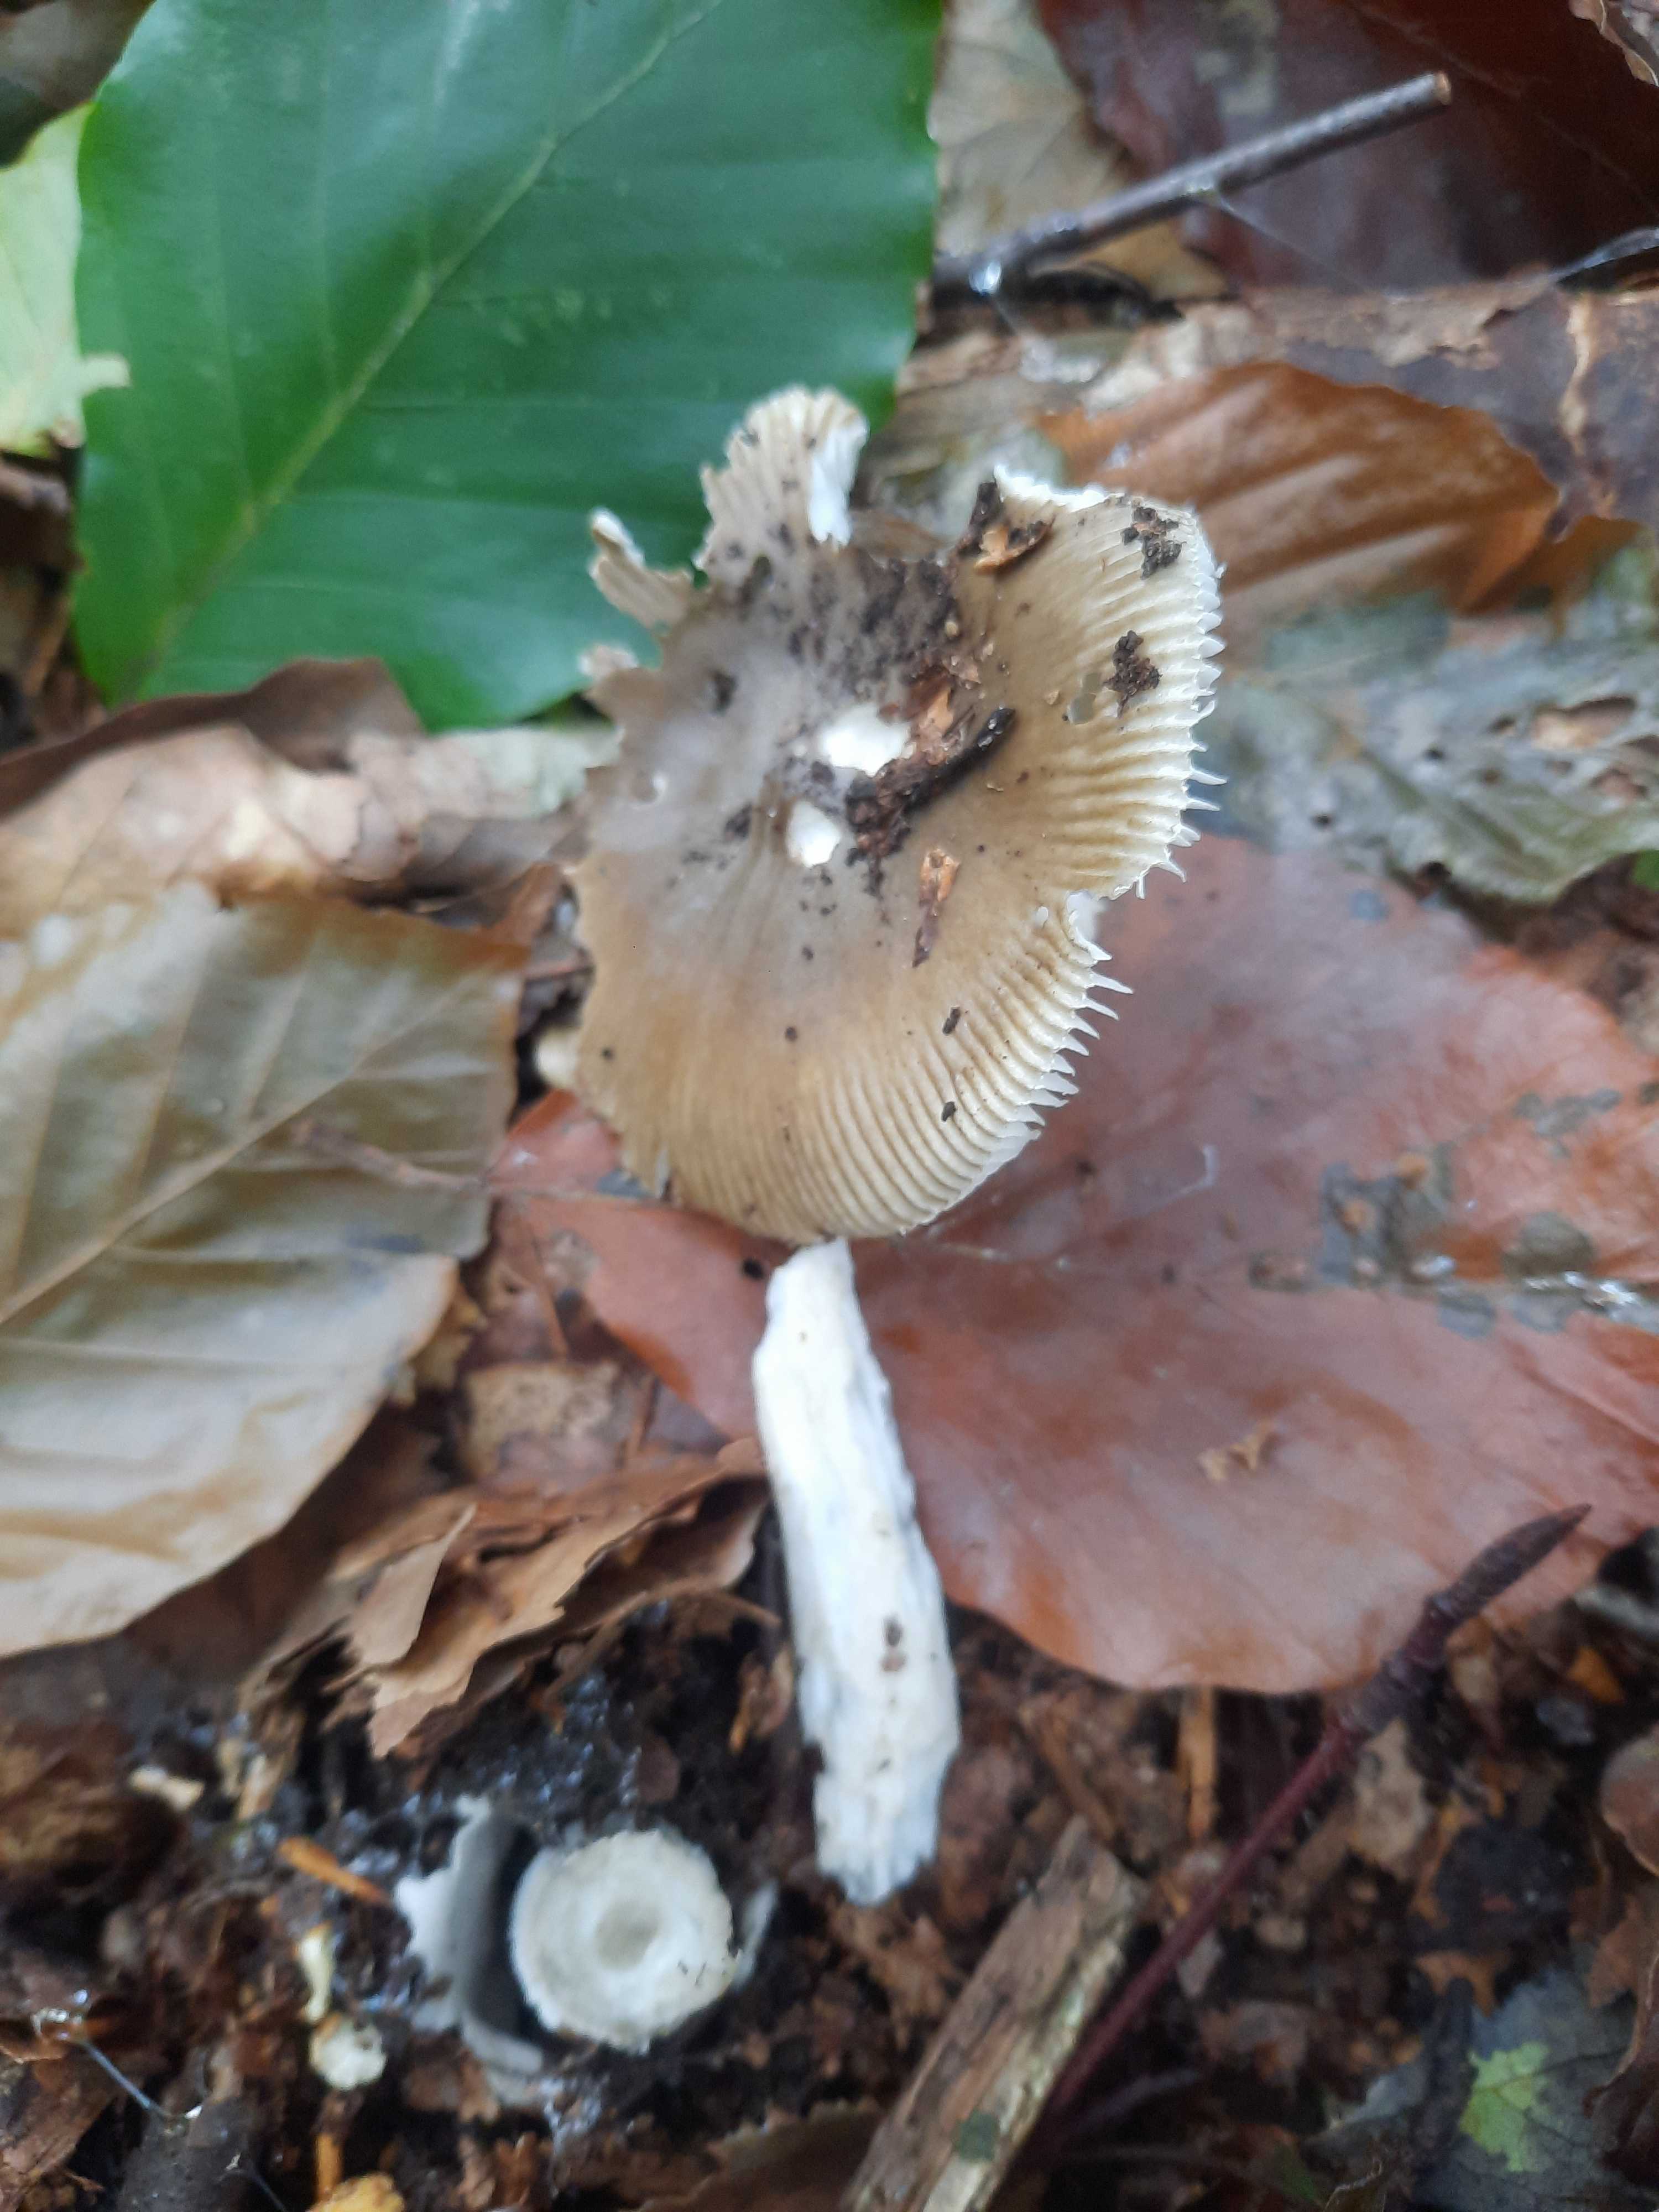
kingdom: Fungi
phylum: Basidiomycota
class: Agaricomycetes
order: Agaricales
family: Amanitaceae
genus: Amanita
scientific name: Amanita fulva
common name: brun kam-fluesvamp
